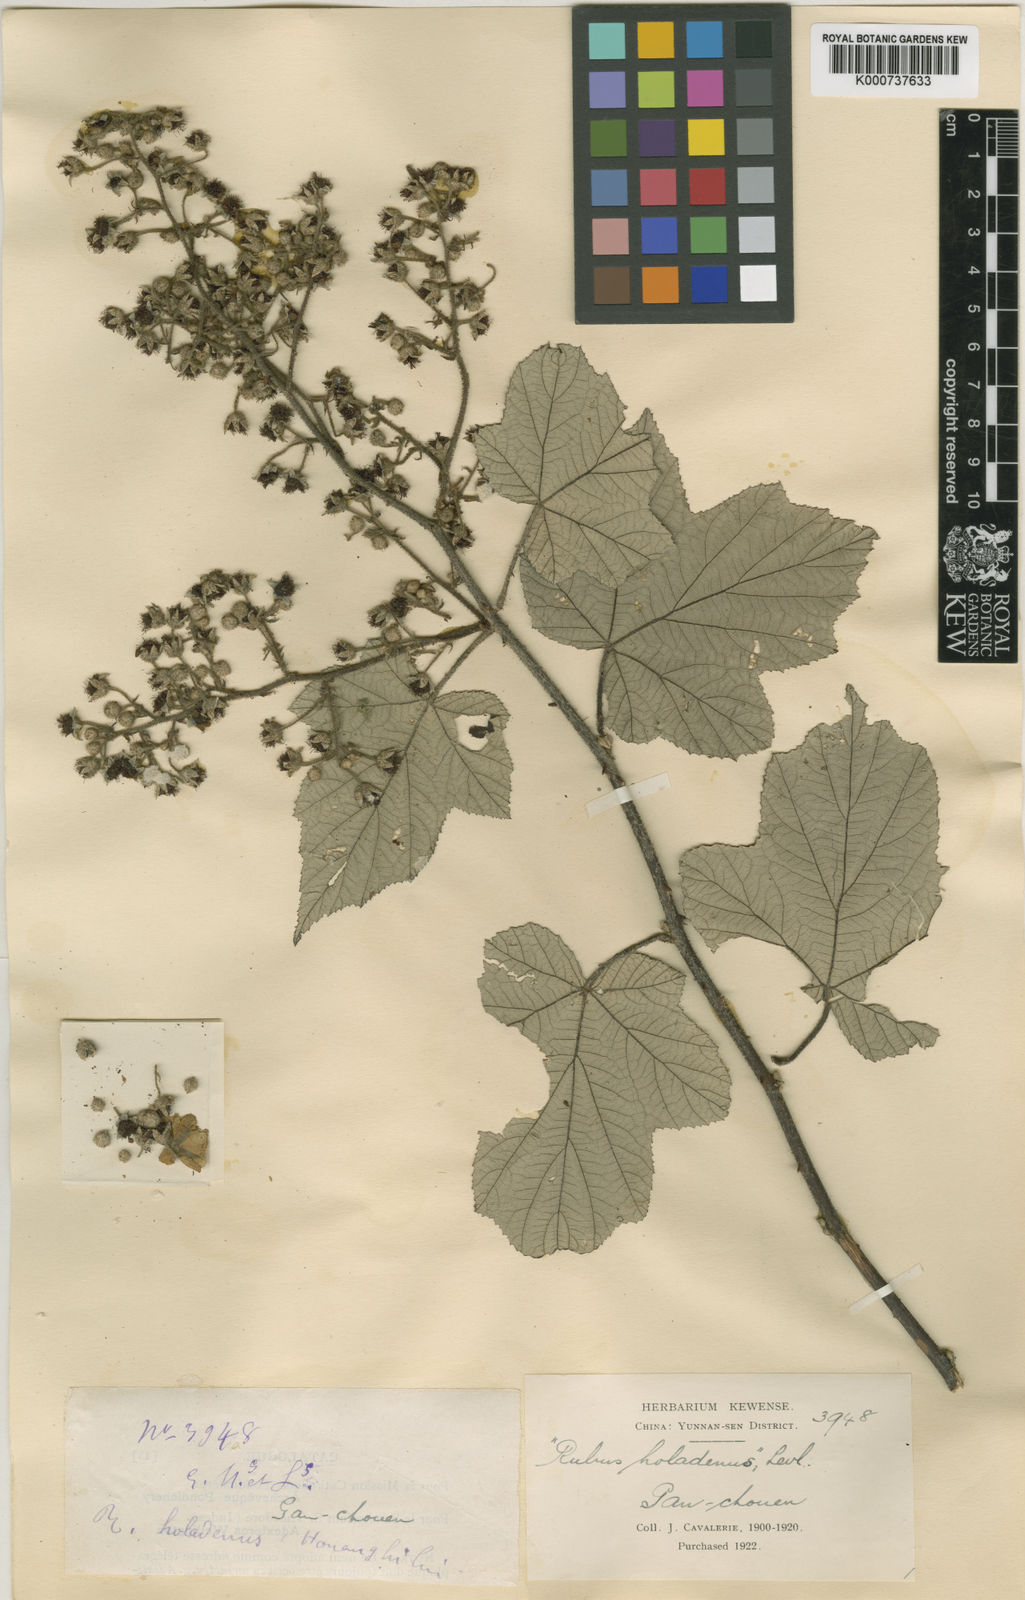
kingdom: Plantae
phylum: Tracheophyta
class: Magnoliopsida
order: Rosales
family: Rosaceae
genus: Rubus
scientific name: Rubus
